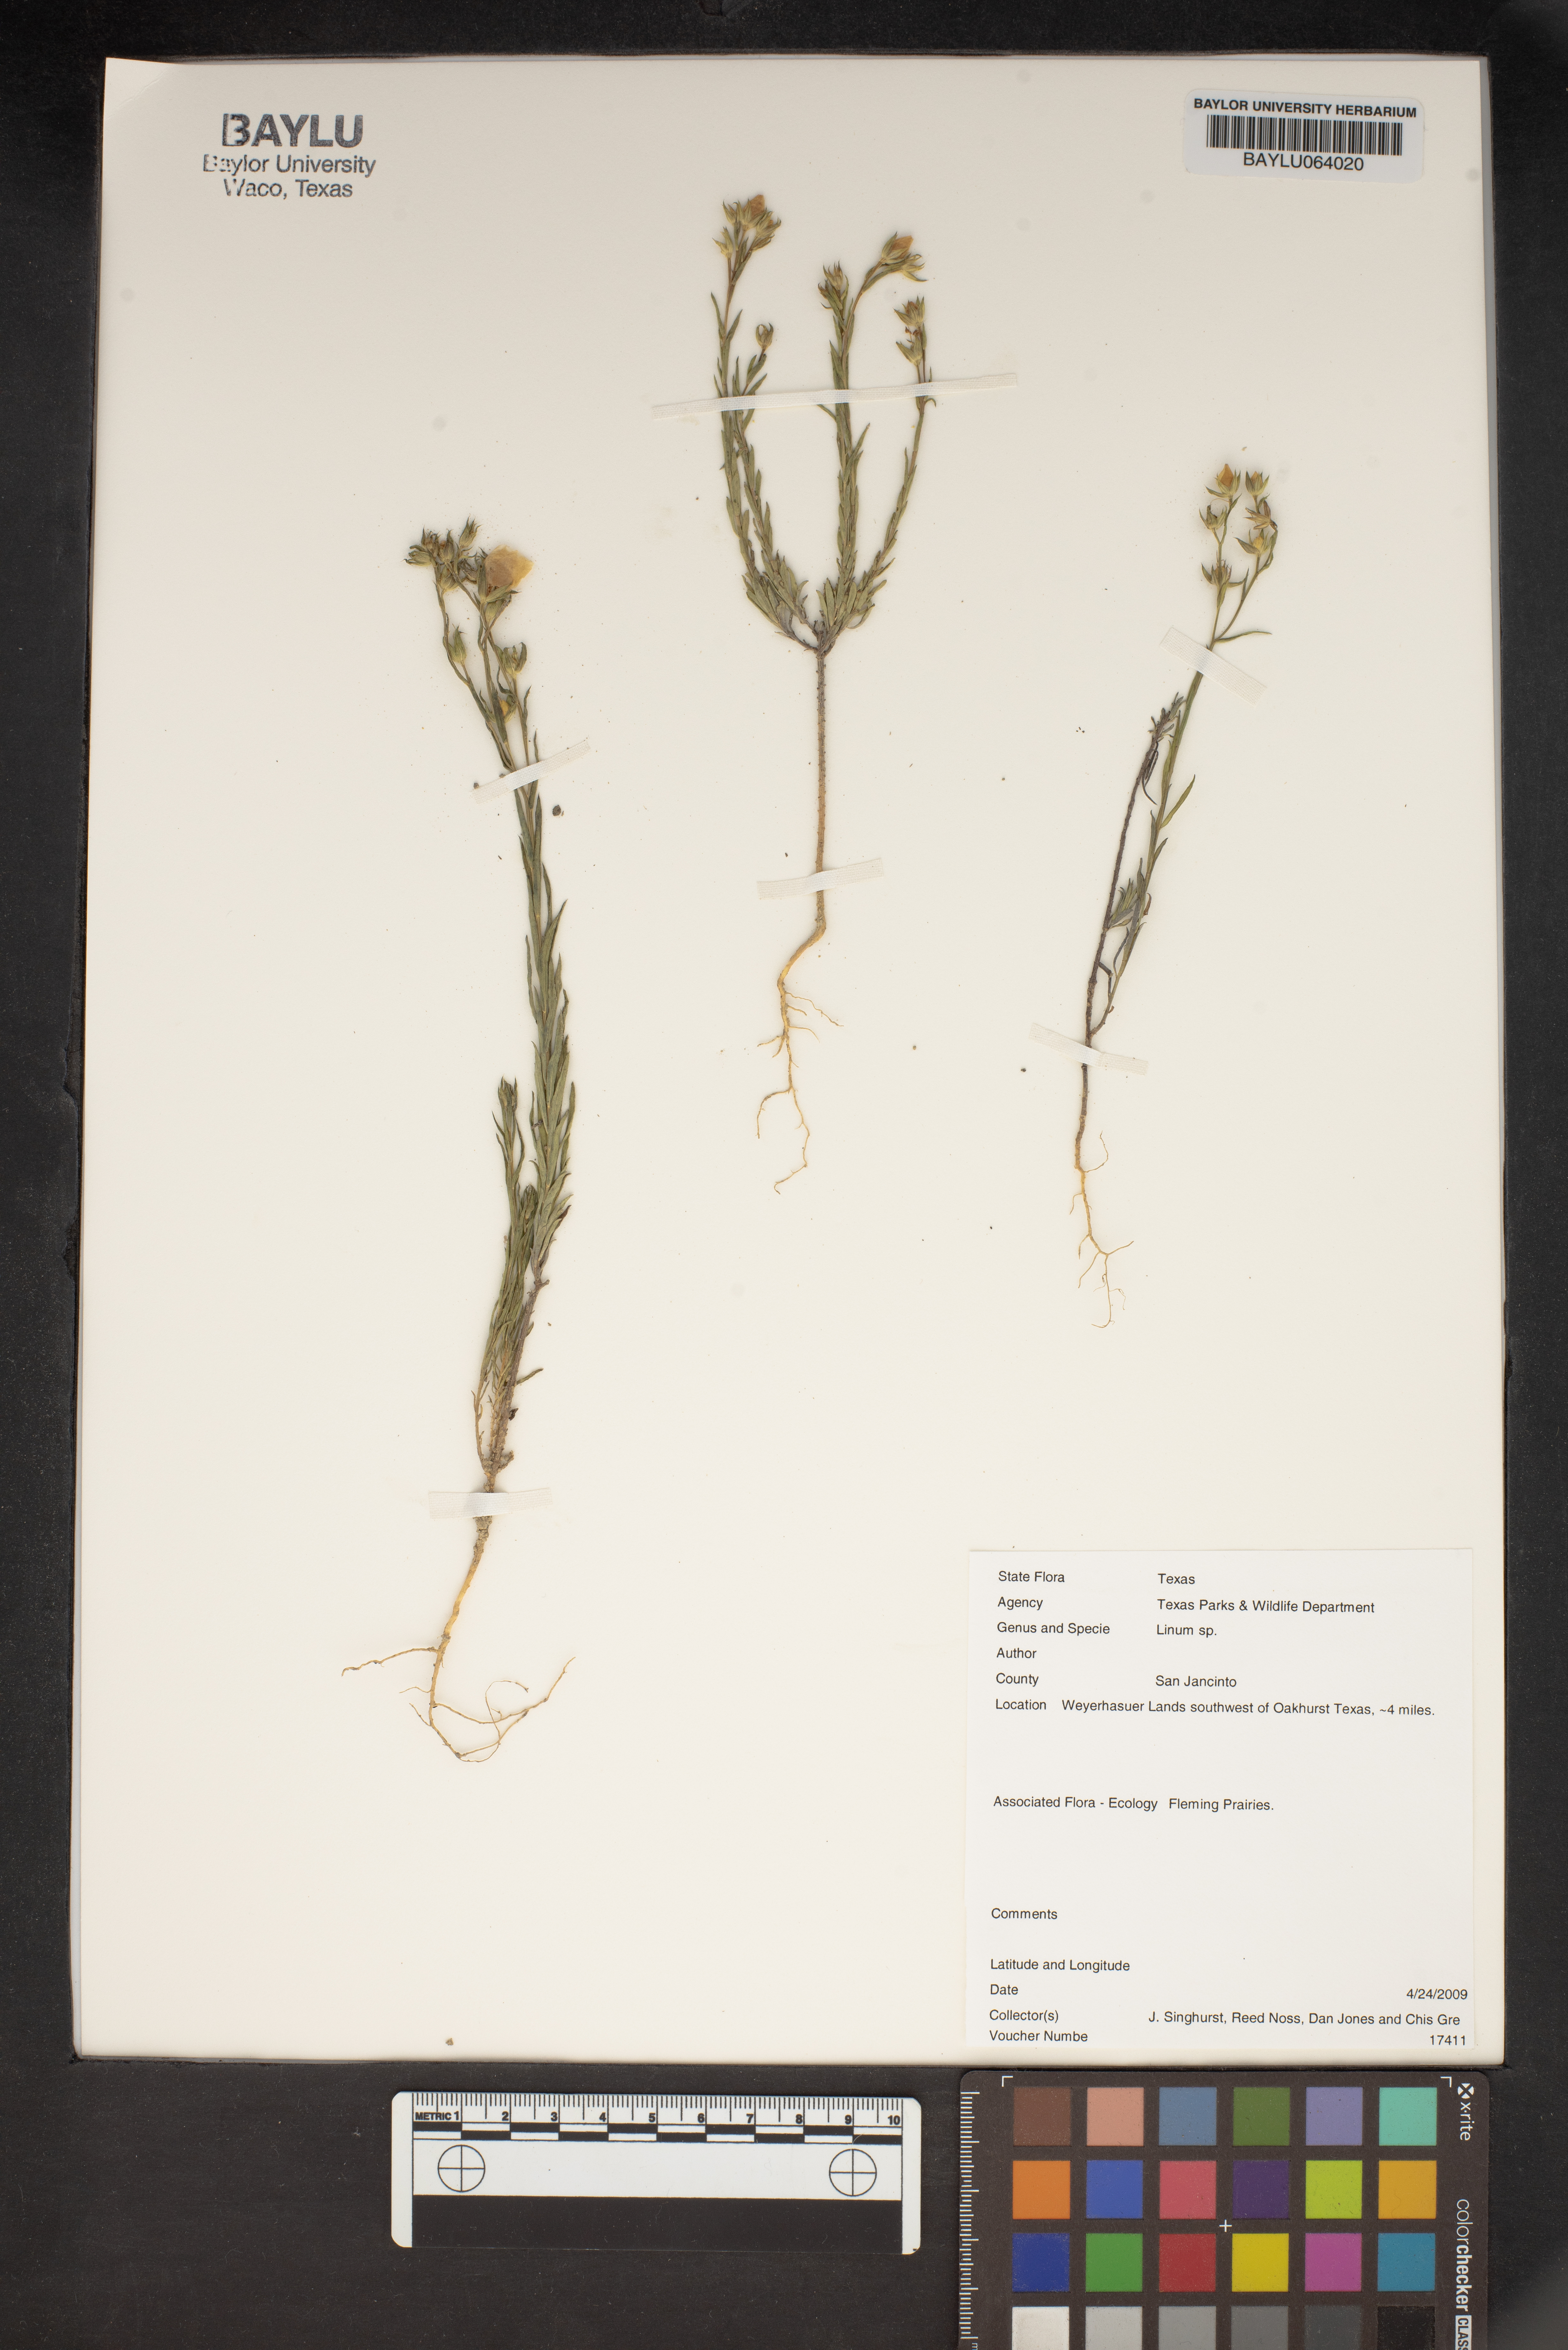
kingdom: Plantae
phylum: Tracheophyta
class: Magnoliopsida
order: Malpighiales
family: Linaceae
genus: Linum
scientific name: Linum
